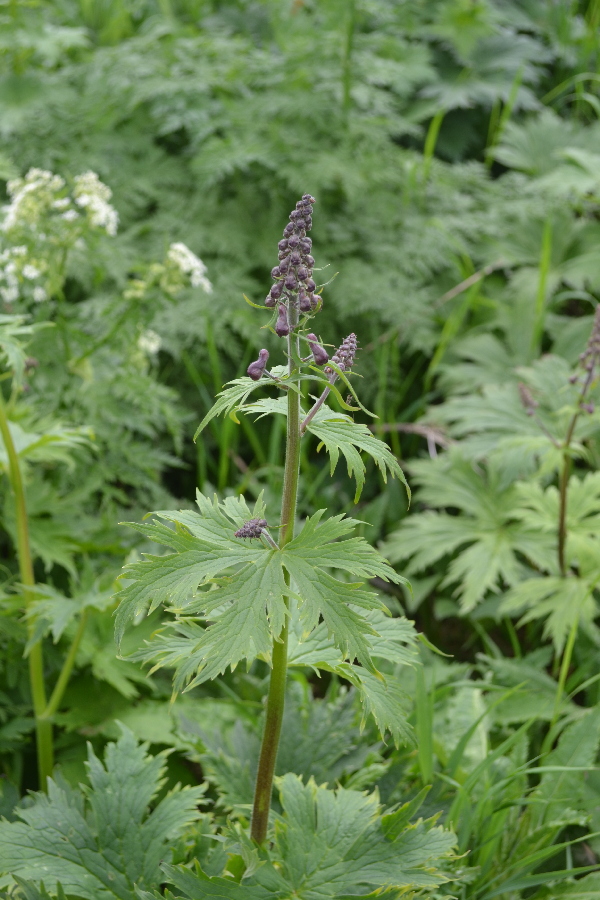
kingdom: Plantae
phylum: Tracheophyta
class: Magnoliopsida
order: Ranunculales
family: Ranunculaceae
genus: Aconitum
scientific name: Aconitum septentrionale
